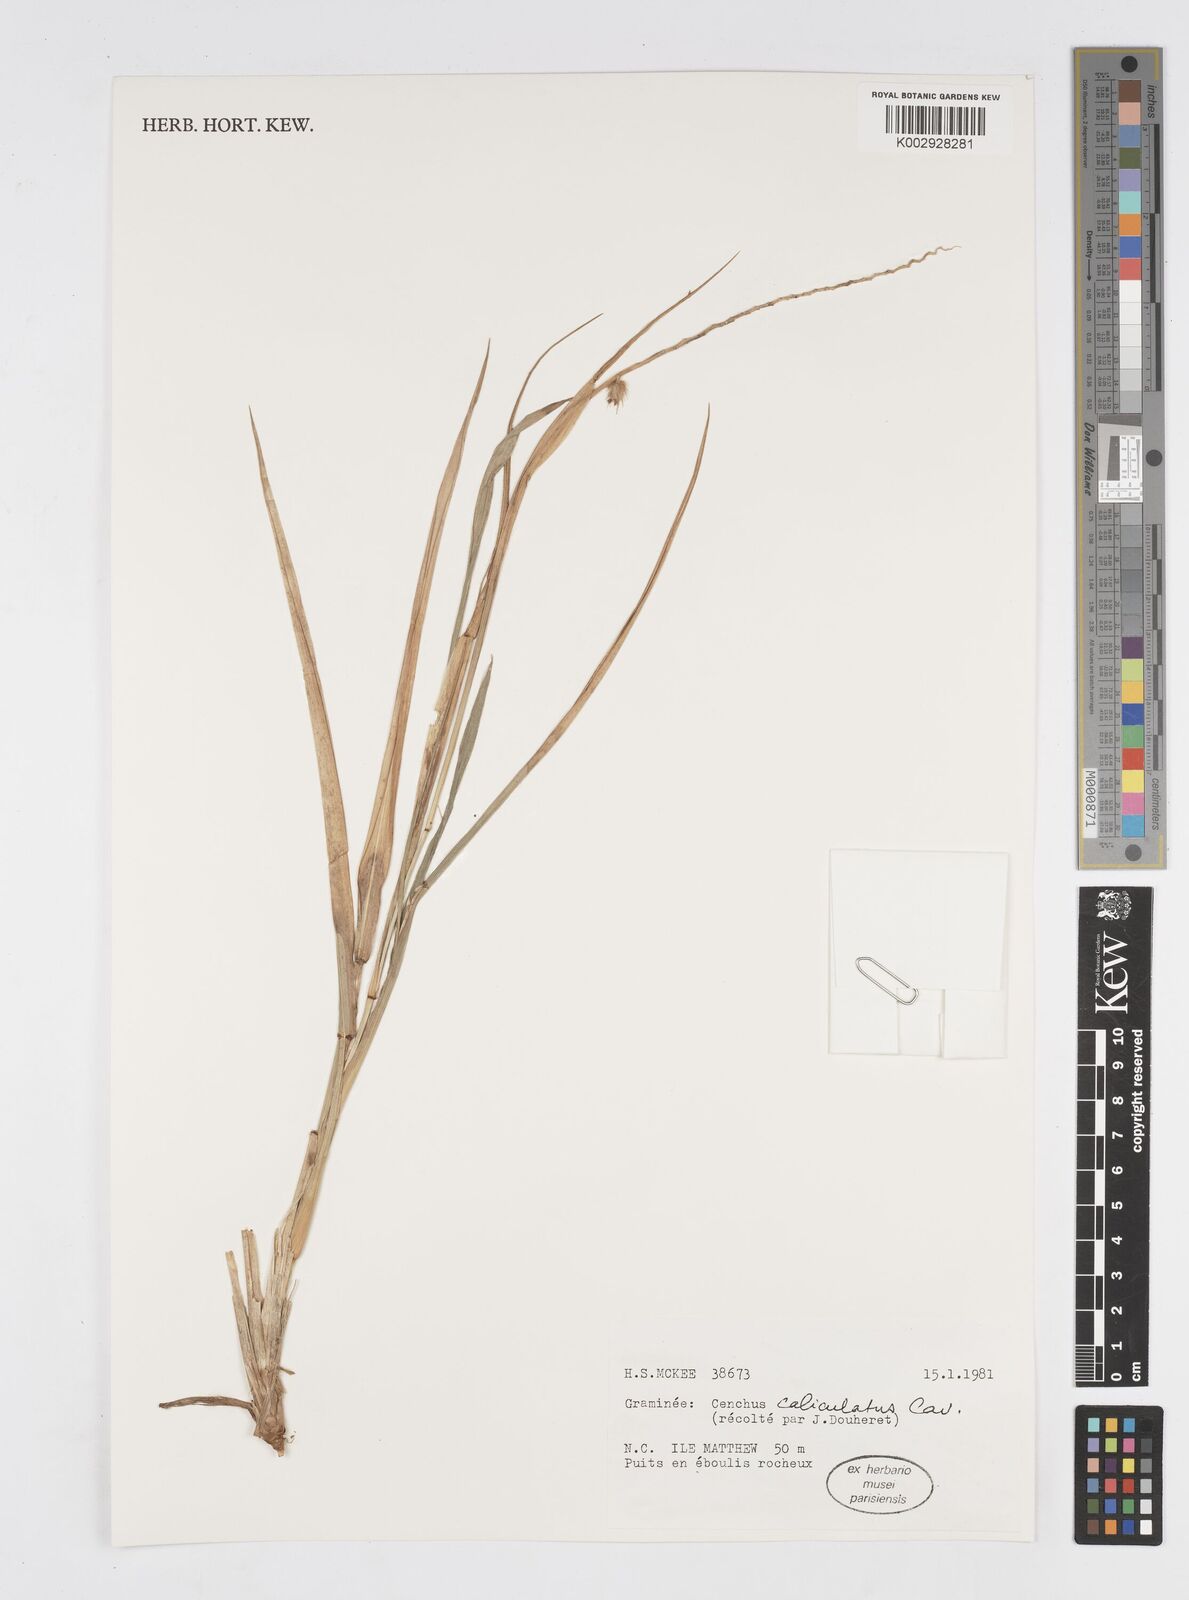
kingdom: Plantae
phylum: Tracheophyta
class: Liliopsida
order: Poales
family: Poaceae
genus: Cenchrus
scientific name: Cenchrus caliculatus
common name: Large bur grass
